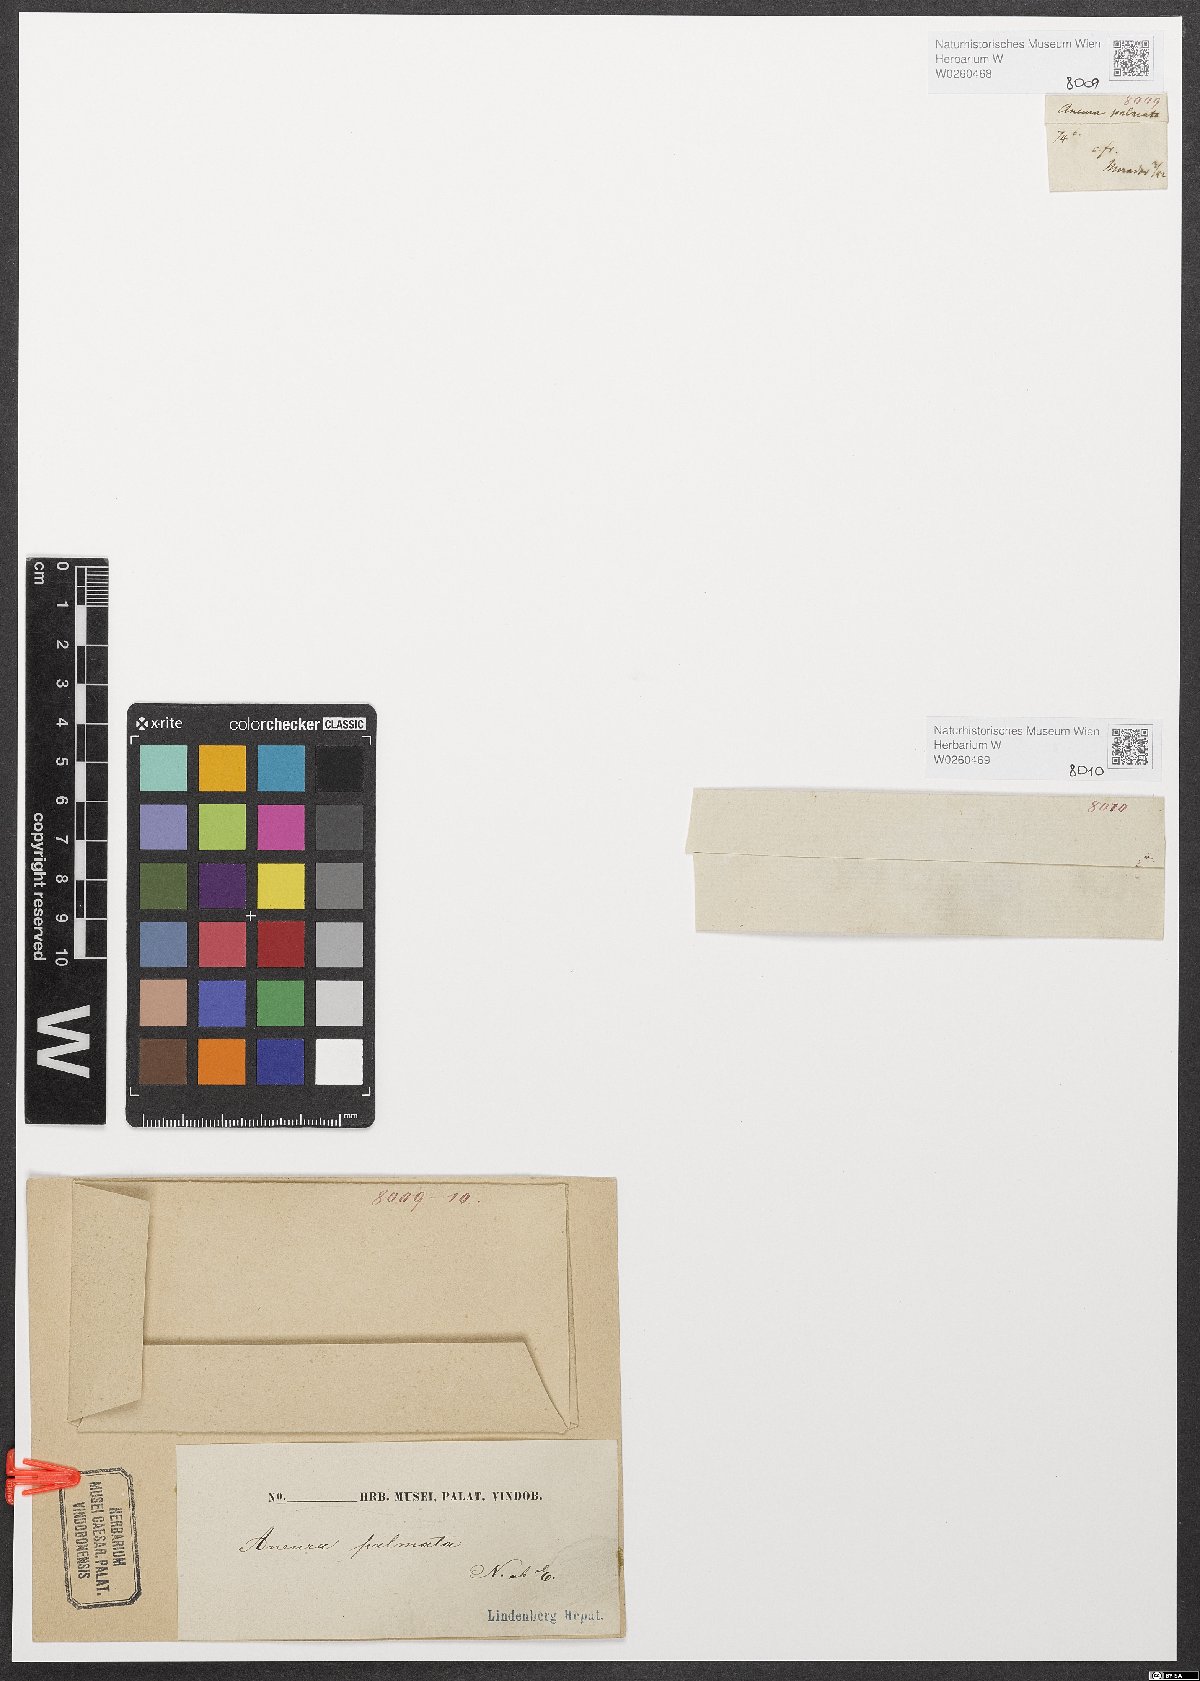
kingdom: Plantae
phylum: Marchantiophyta
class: Jungermanniopsida
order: Metzgeriales
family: Aneuraceae
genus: Riccardia
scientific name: Riccardia palmata
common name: Palmate germanderwort
